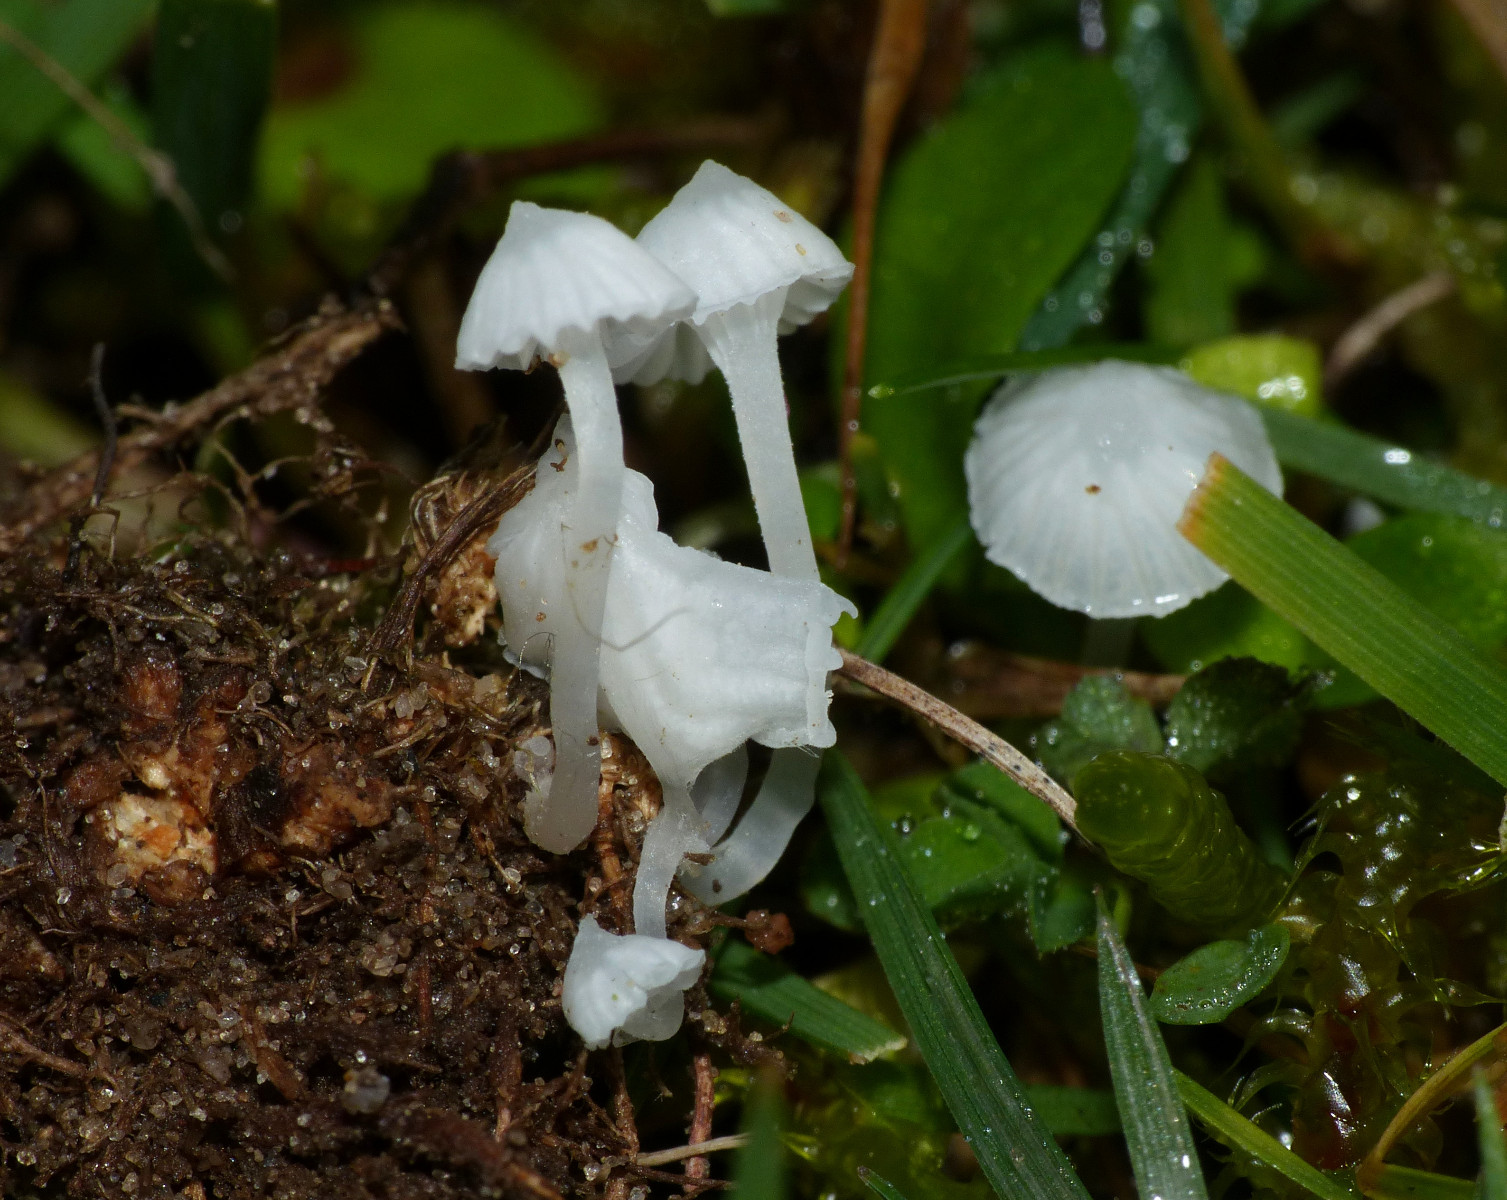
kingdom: Fungi
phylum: Basidiomycota
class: Agaricomycetes
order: Agaricales
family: Mycenaceae
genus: Atheniella
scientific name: Atheniella delectabilis
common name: nitrøs huesvamp
